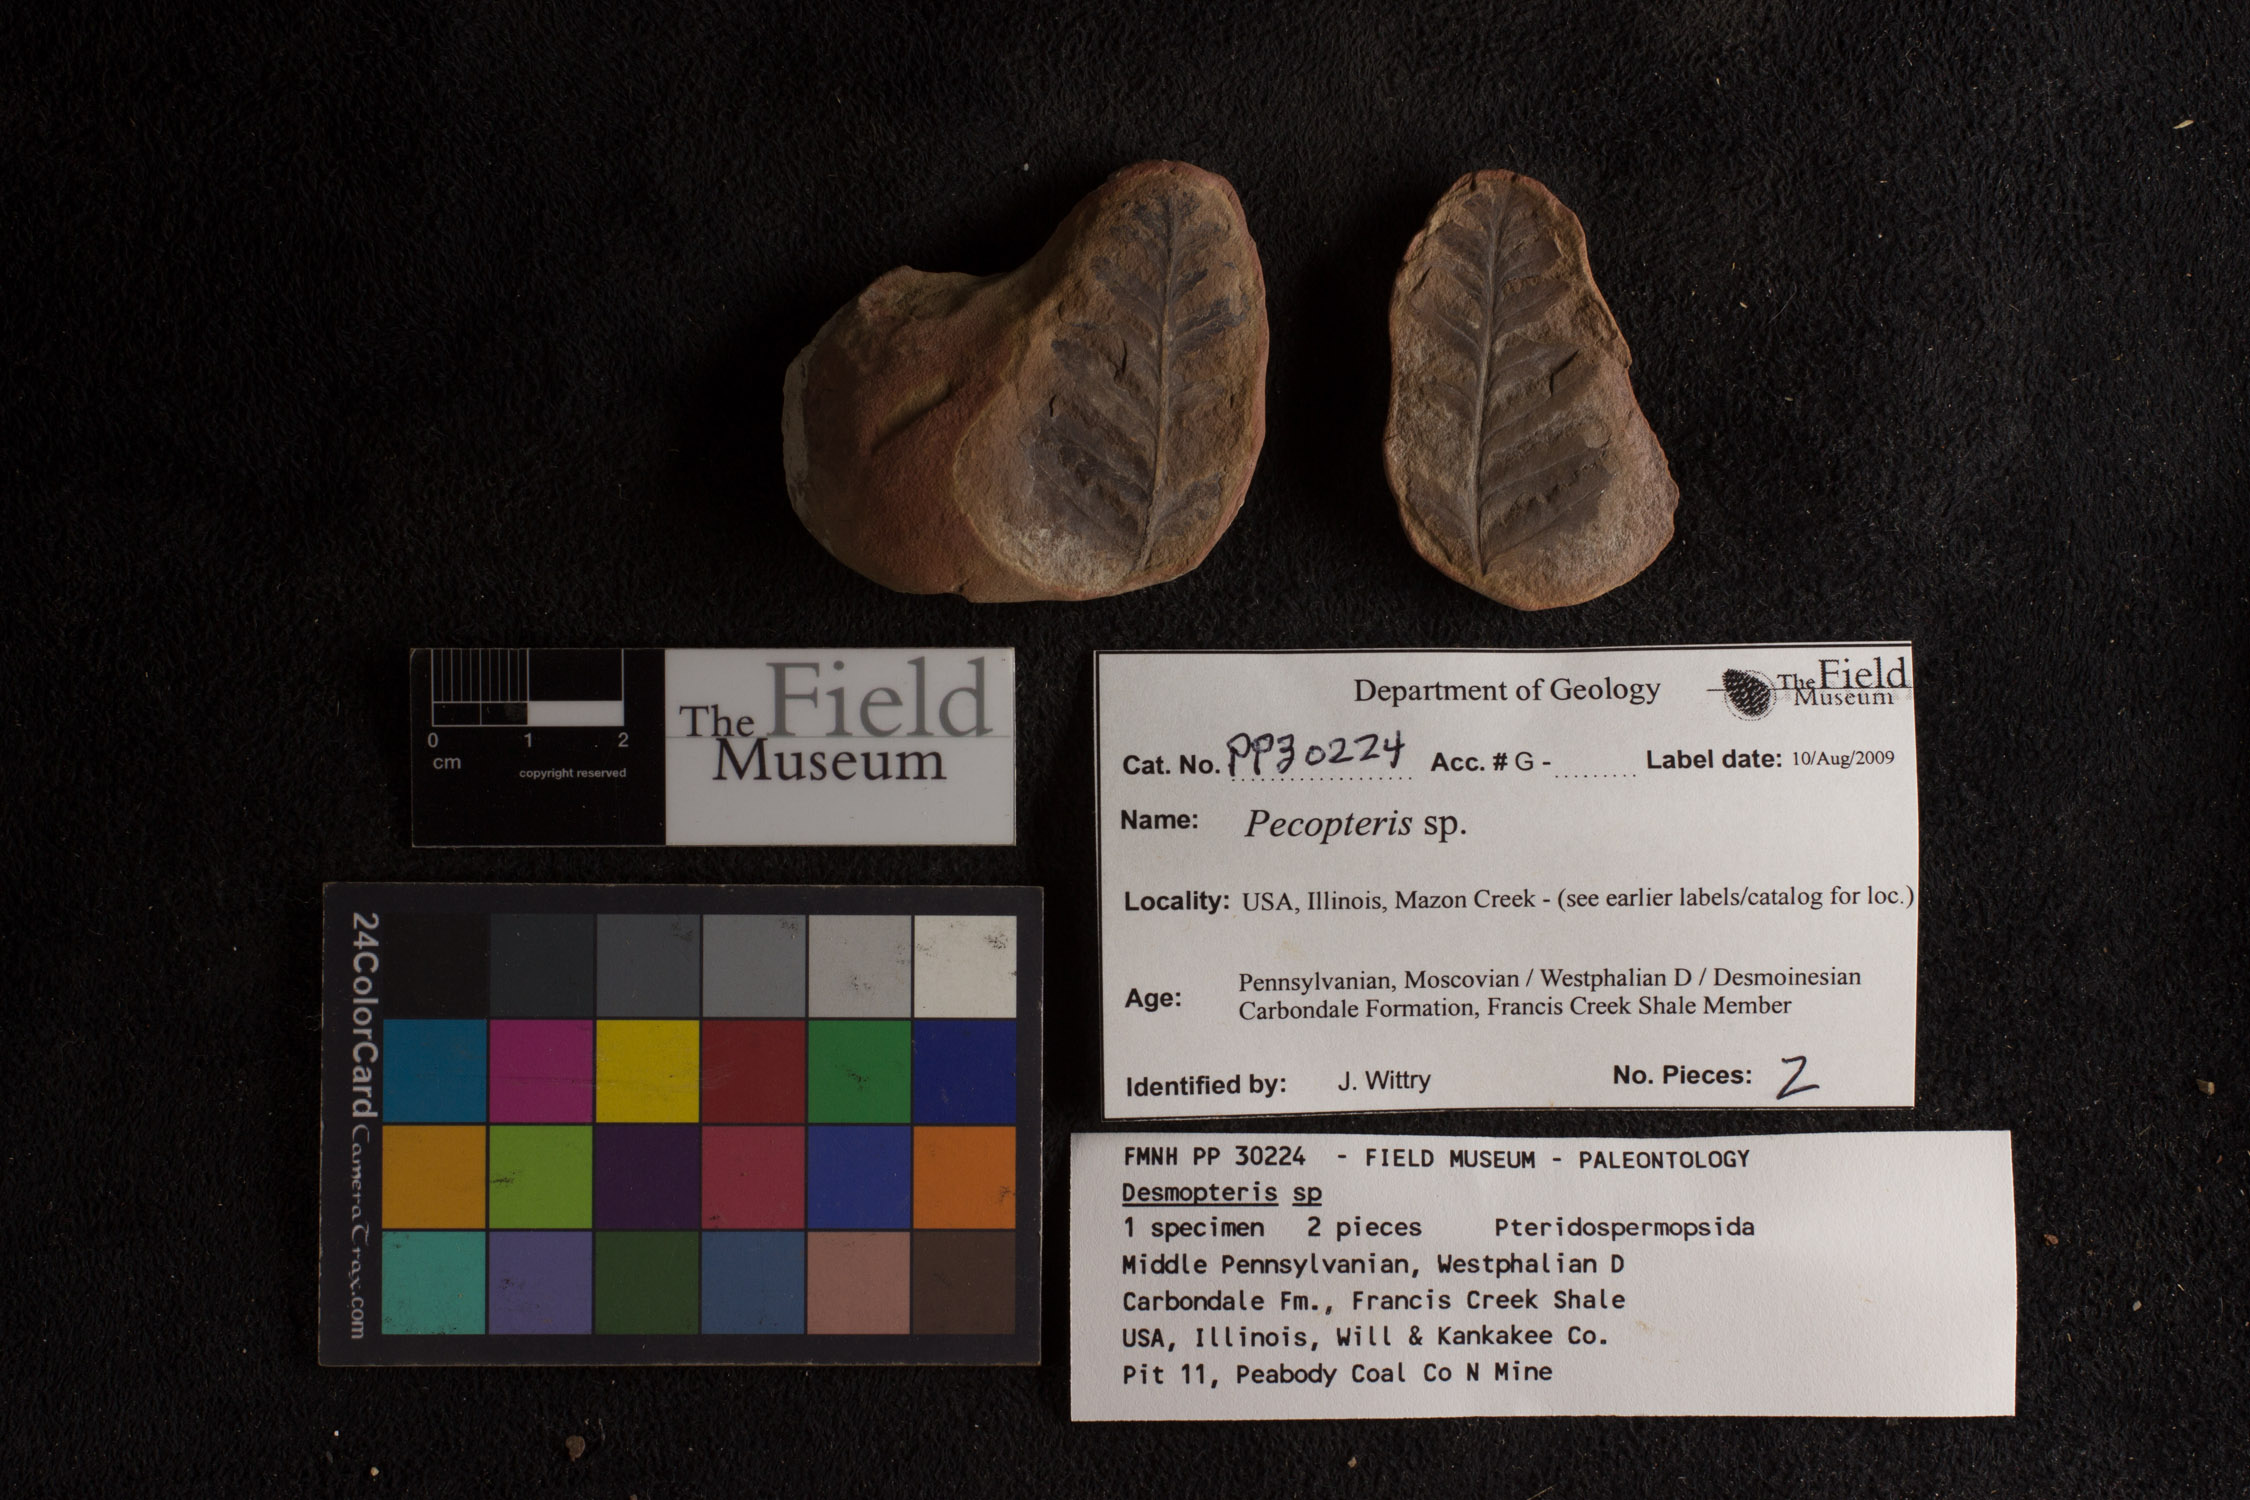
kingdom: Plantae
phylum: Tracheophyta
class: Polypodiopsida
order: Marattiales
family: Asterothecaceae
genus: Pecopteris
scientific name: Pecopteris
